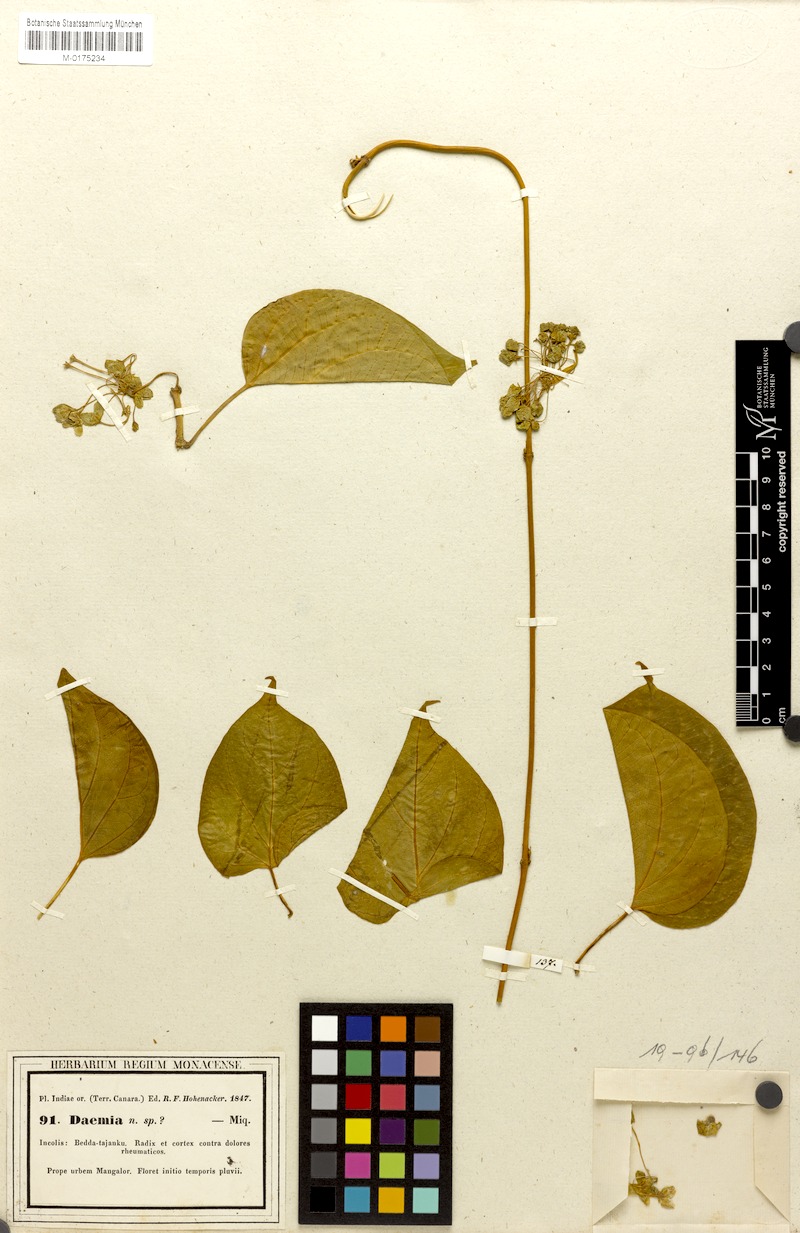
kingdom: Plantae
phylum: Tracheophyta
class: Magnoliopsida
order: Gentianales
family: Apocynaceae
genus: Pergularia
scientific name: Pergularia
